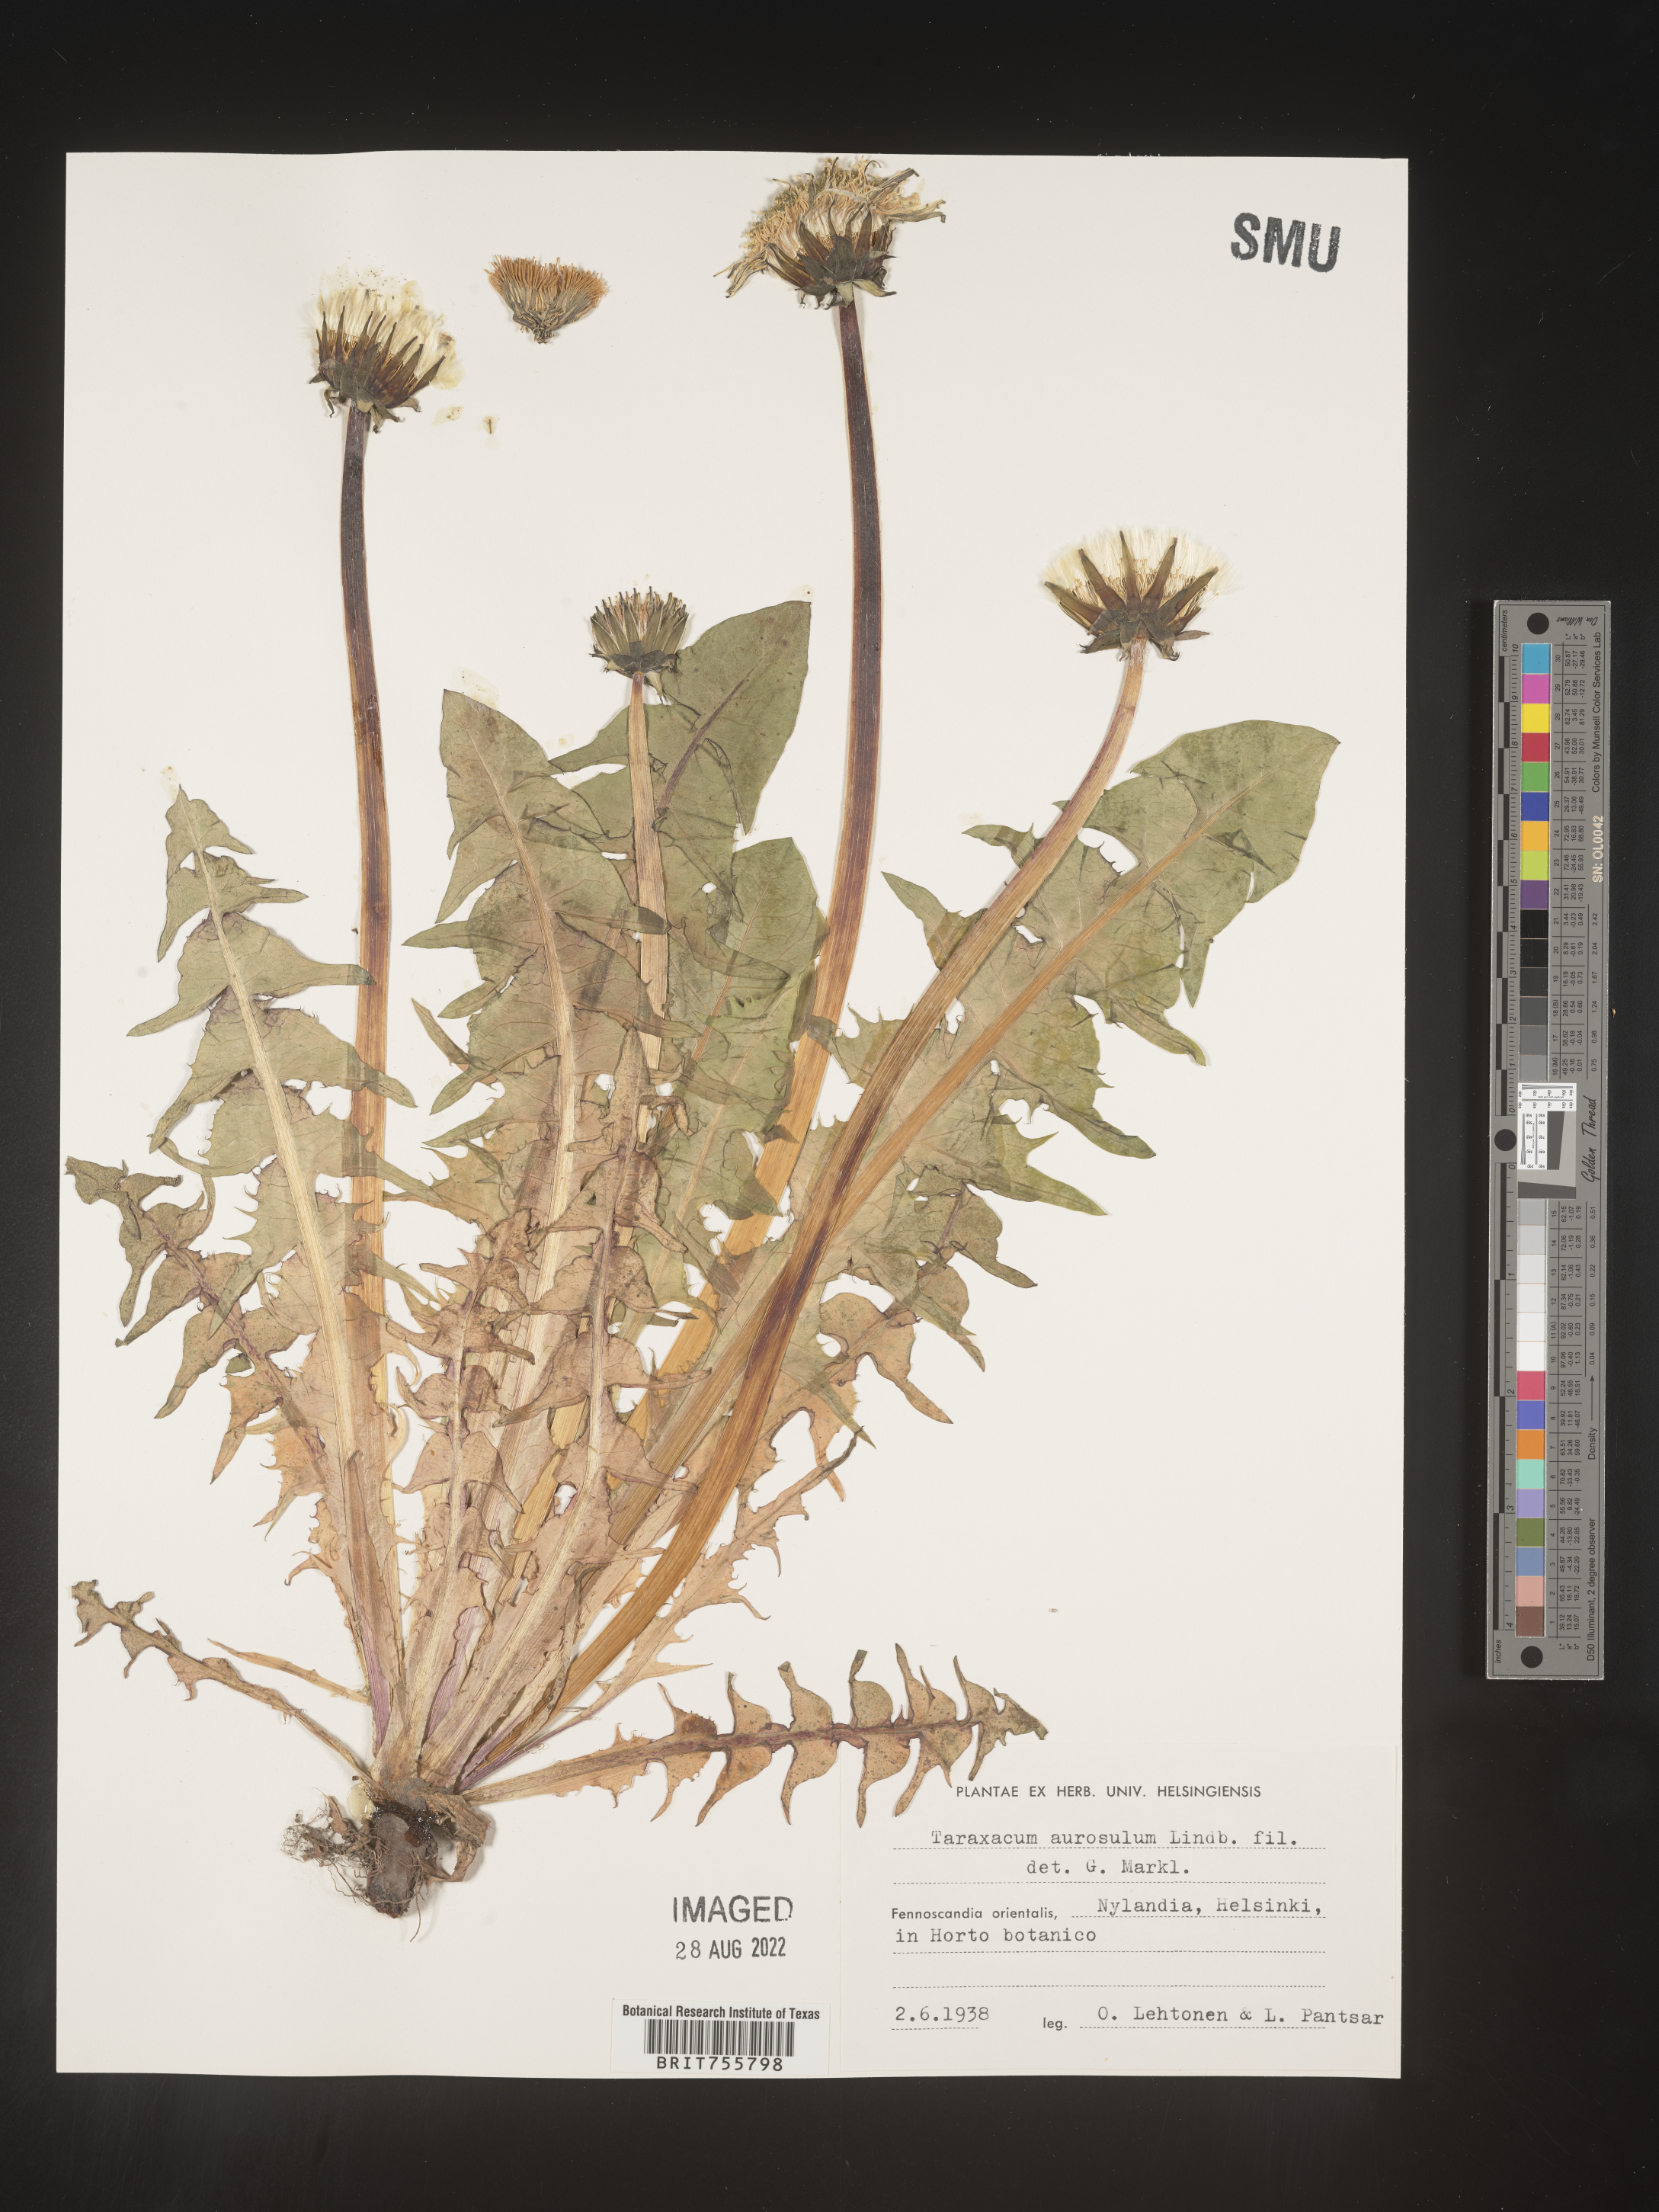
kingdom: Plantae
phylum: Tracheophyta
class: Magnoliopsida
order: Asterales
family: Asteraceae
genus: Taraxacum
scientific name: Taraxacum
